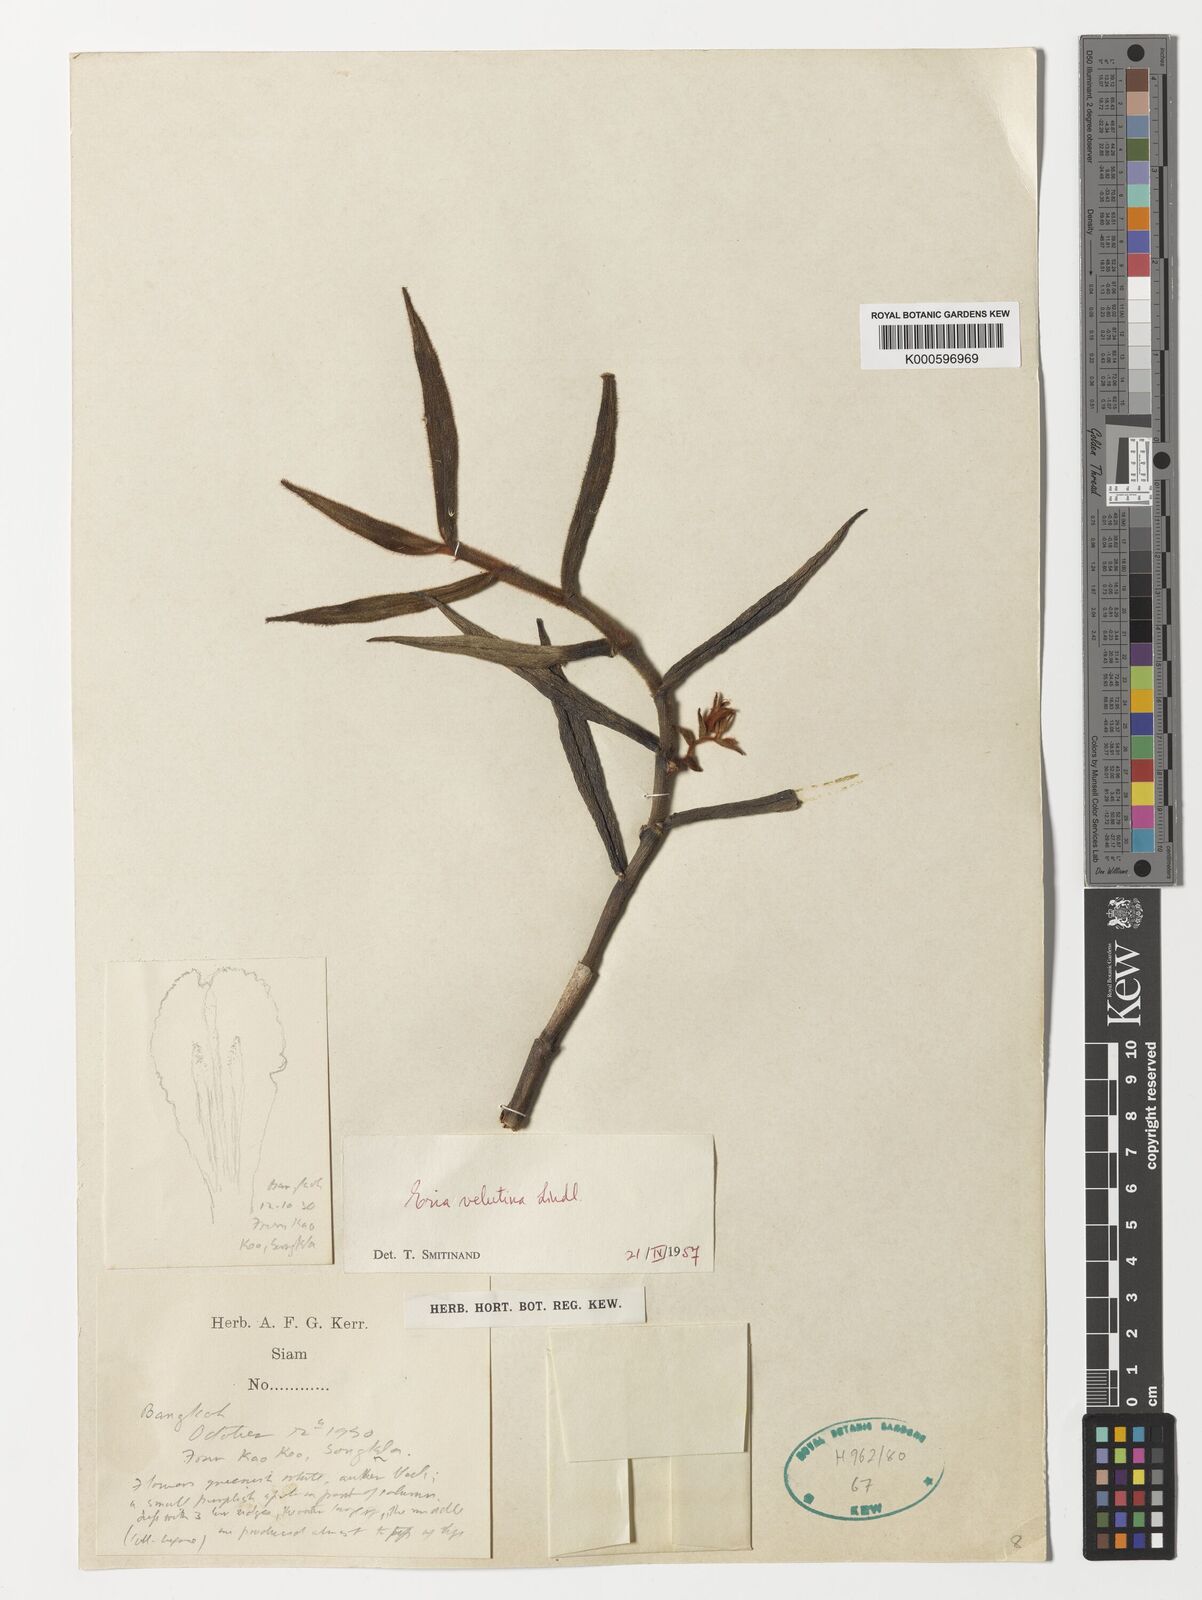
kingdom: Plantae
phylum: Tracheophyta
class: Liliopsida
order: Asparagales
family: Orchidaceae
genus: Trichotosia
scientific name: Trichotosia velutina
